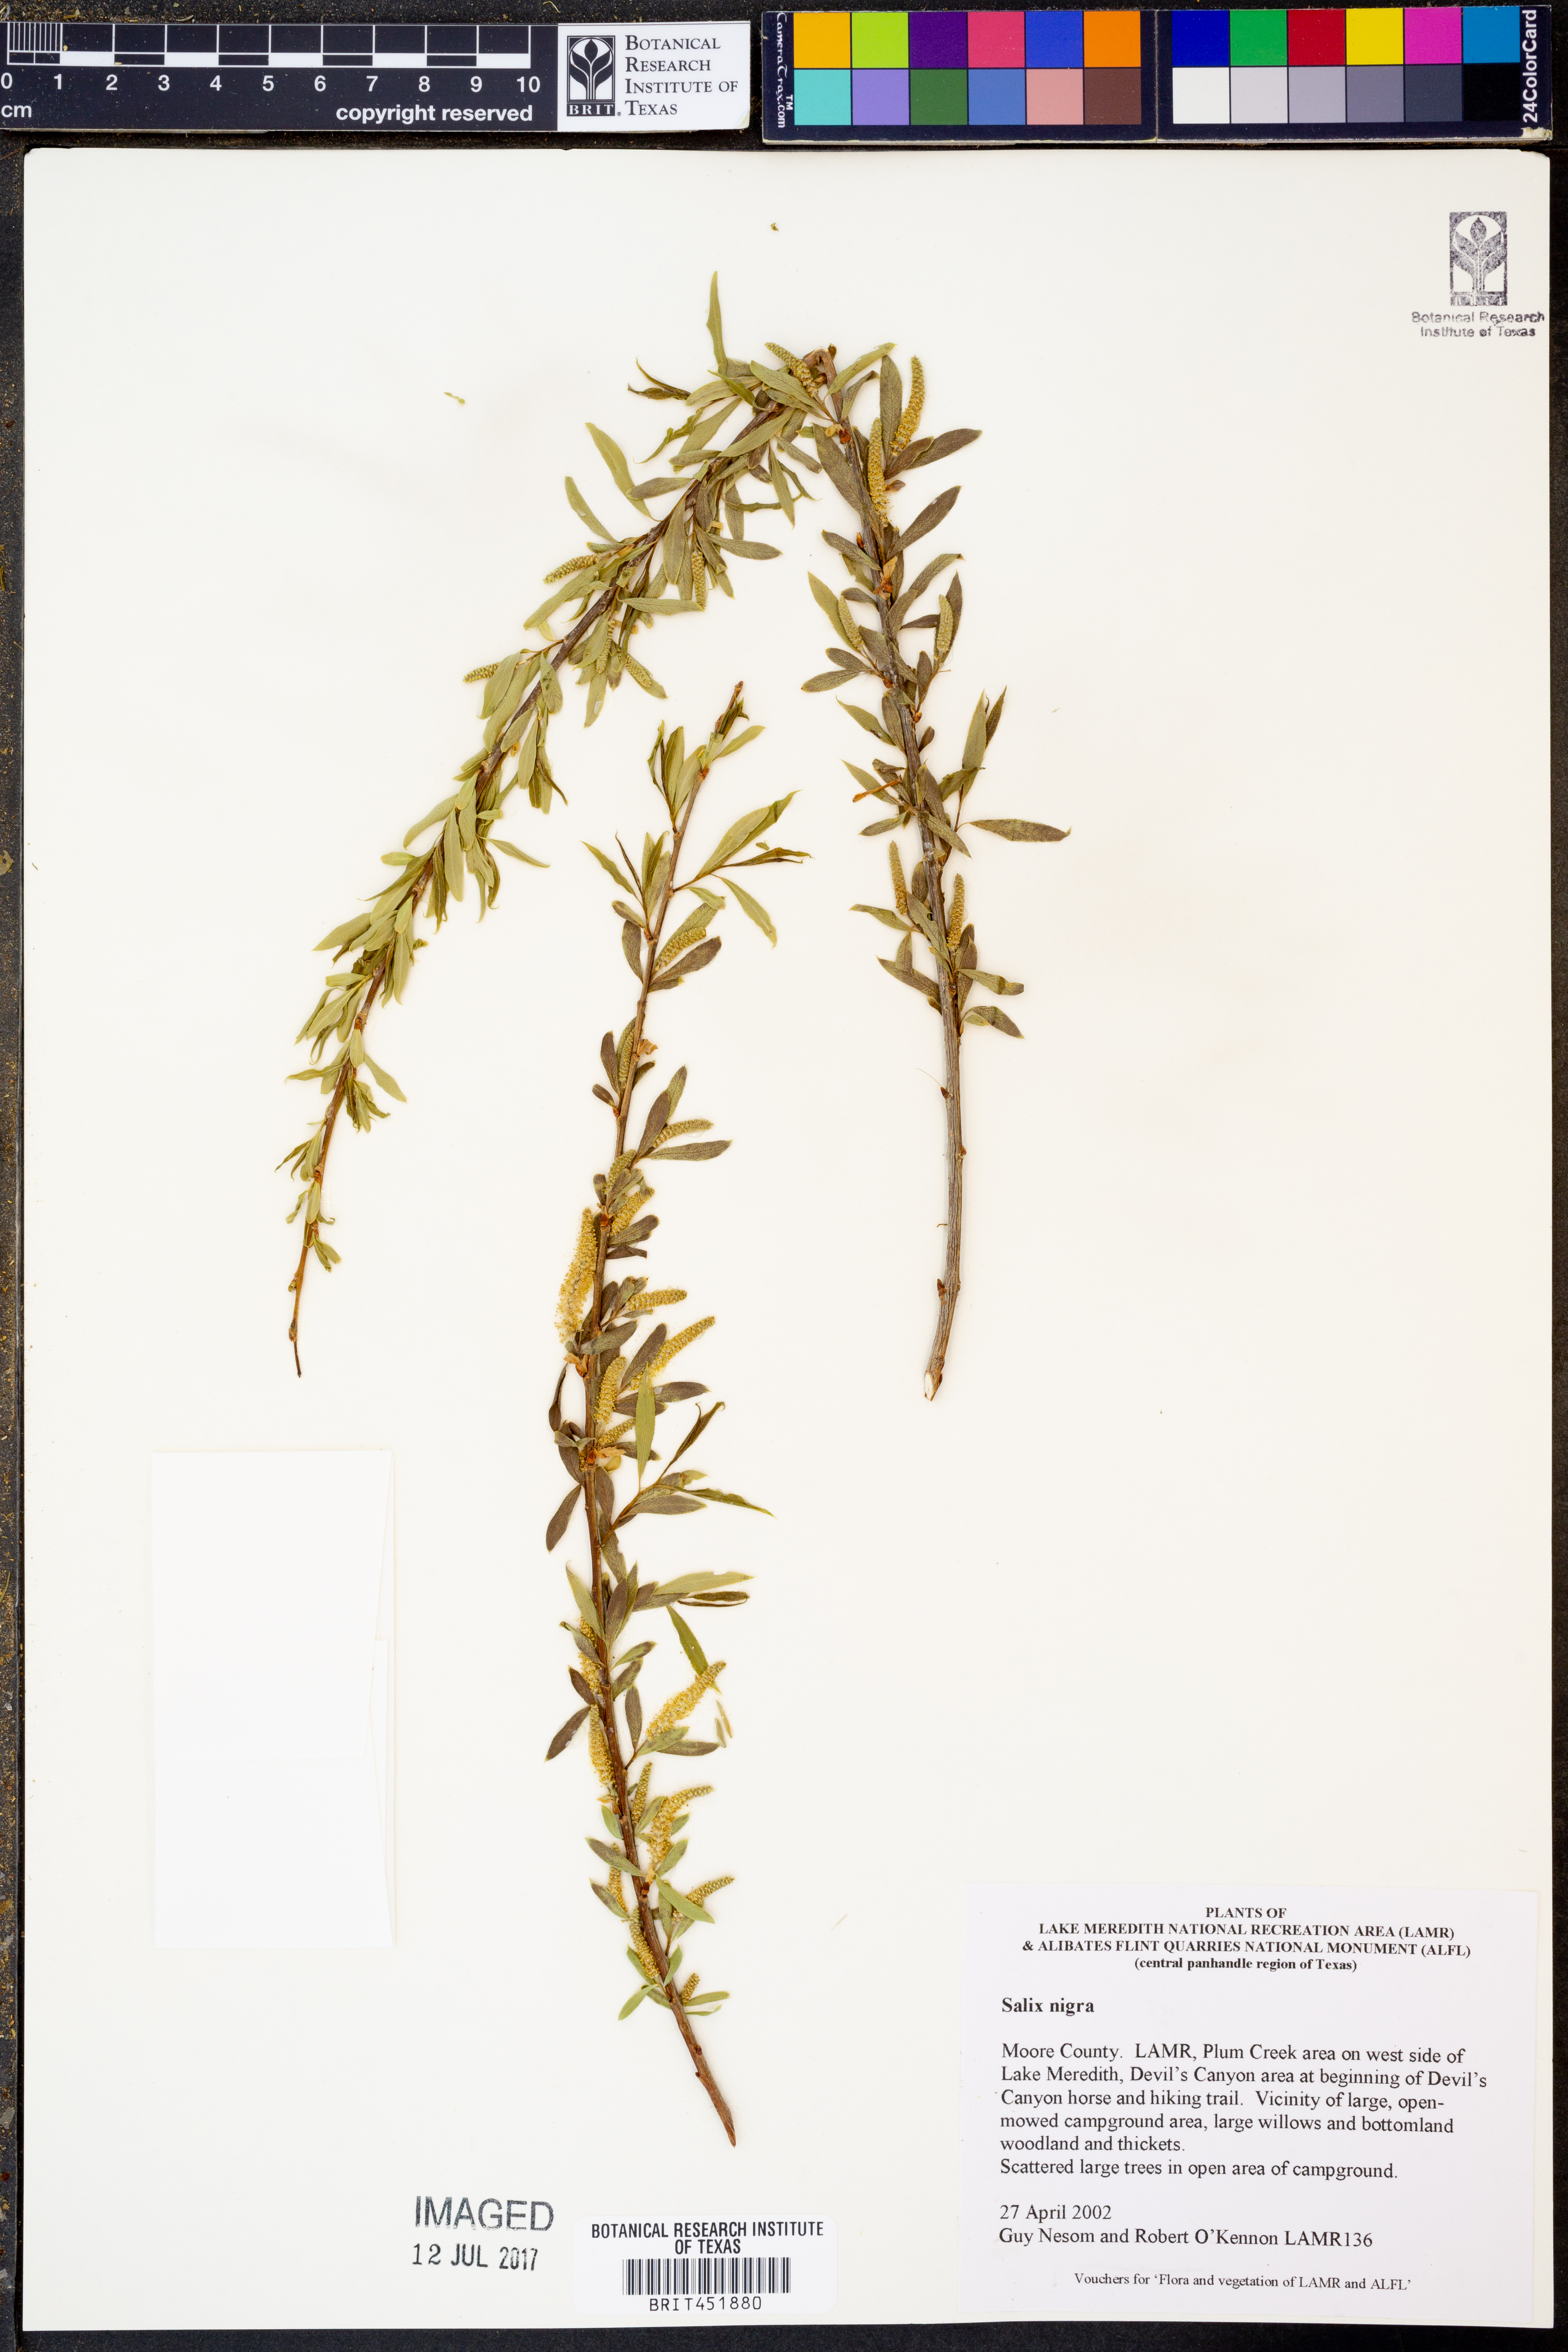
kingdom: Plantae
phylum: Tracheophyta
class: Magnoliopsida
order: Malpighiales
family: Salicaceae
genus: Salix
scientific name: Salix nigra
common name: Black willow
